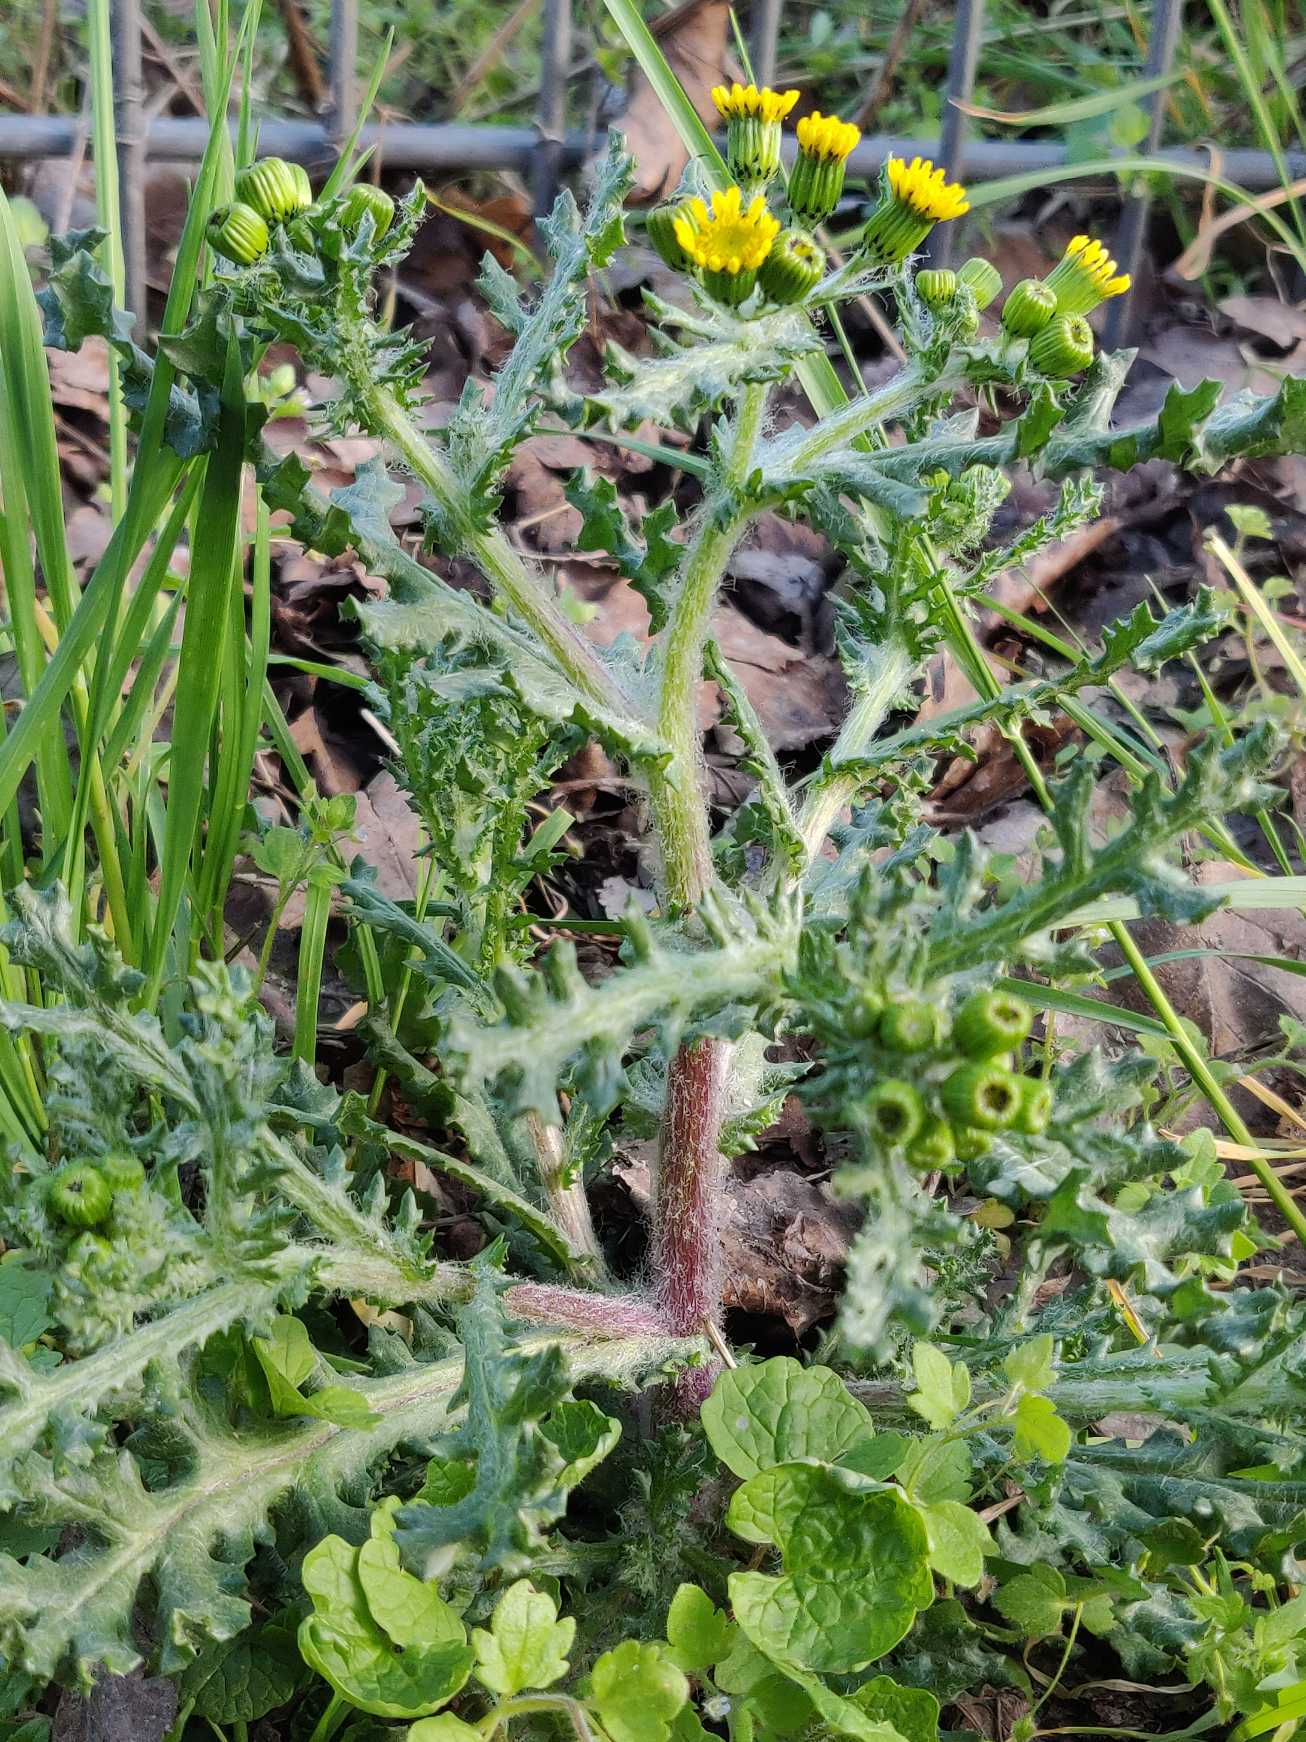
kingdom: Plantae
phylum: Tracheophyta
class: Magnoliopsida
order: Asterales
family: Asteraceae
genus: Senecio
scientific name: Senecio leucanthemifolius
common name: Vår-brandbæger
